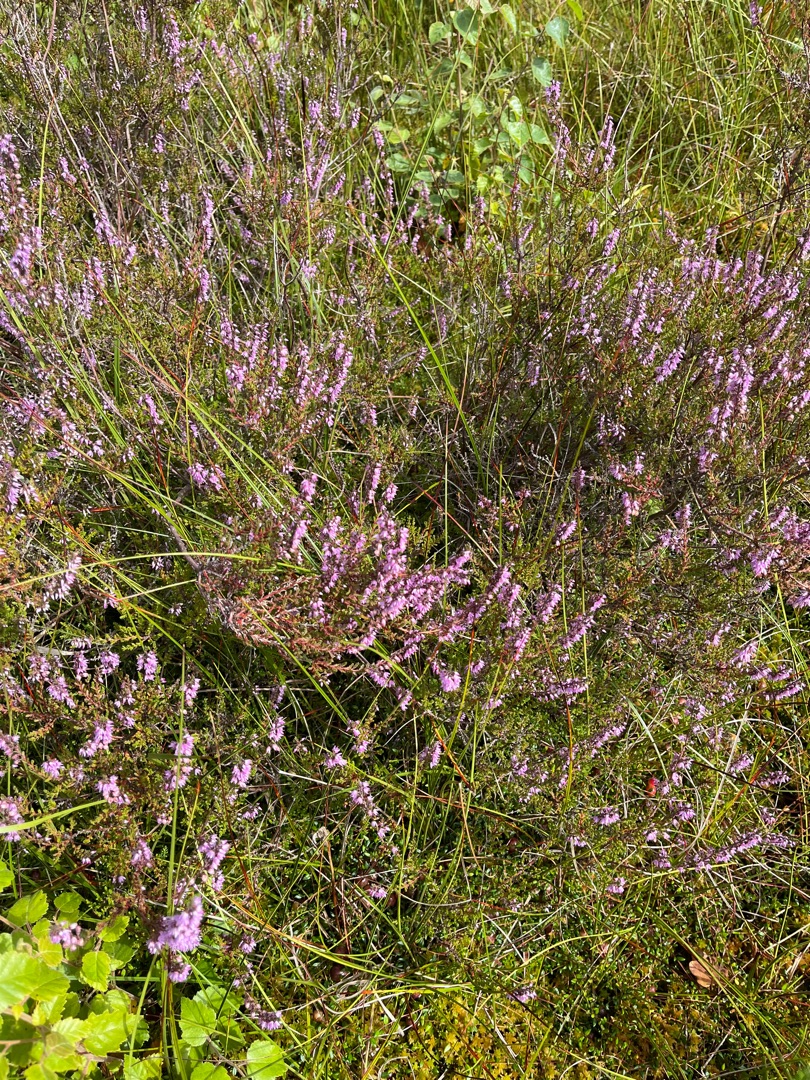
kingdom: Plantae
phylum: Tracheophyta
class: Magnoliopsida
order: Ericales
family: Ericaceae
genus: Calluna
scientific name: Calluna vulgaris
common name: Hedelyng
